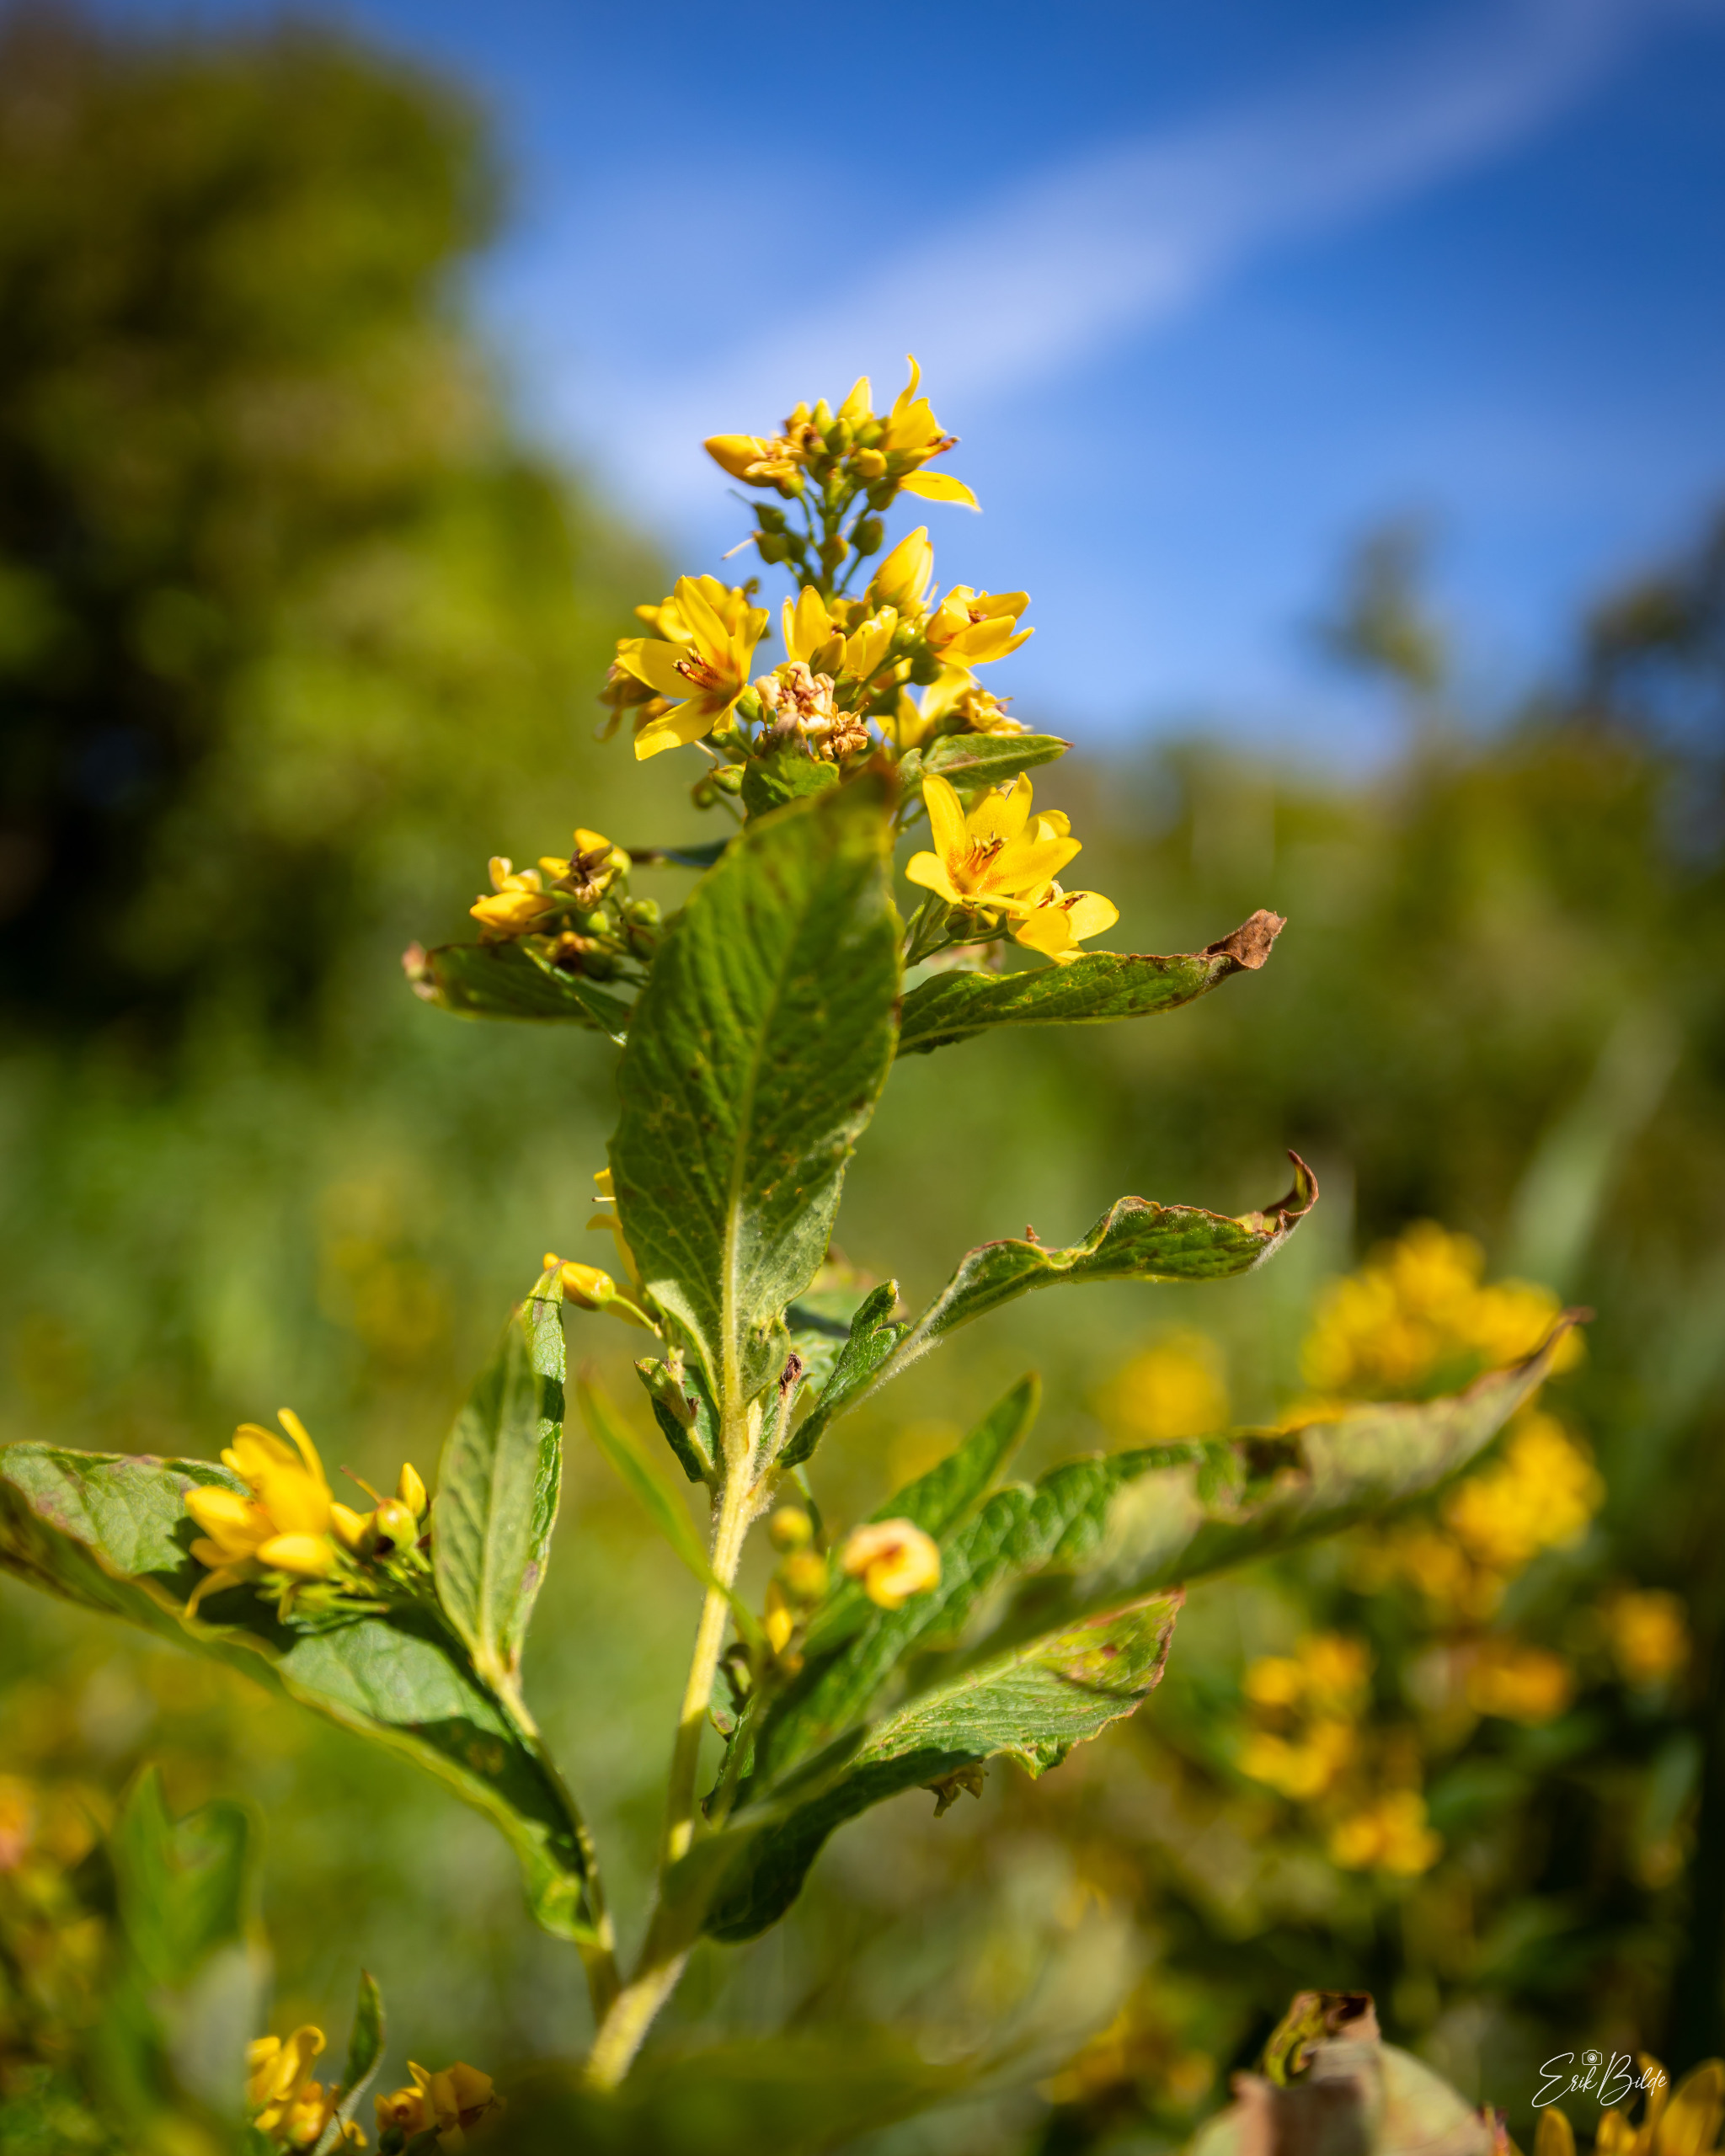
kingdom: Plantae
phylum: Tracheophyta
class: Magnoliopsida
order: Ericales
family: Primulaceae
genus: Lysimachia
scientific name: Lysimachia vulgaris
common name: Almindelig fredløs
